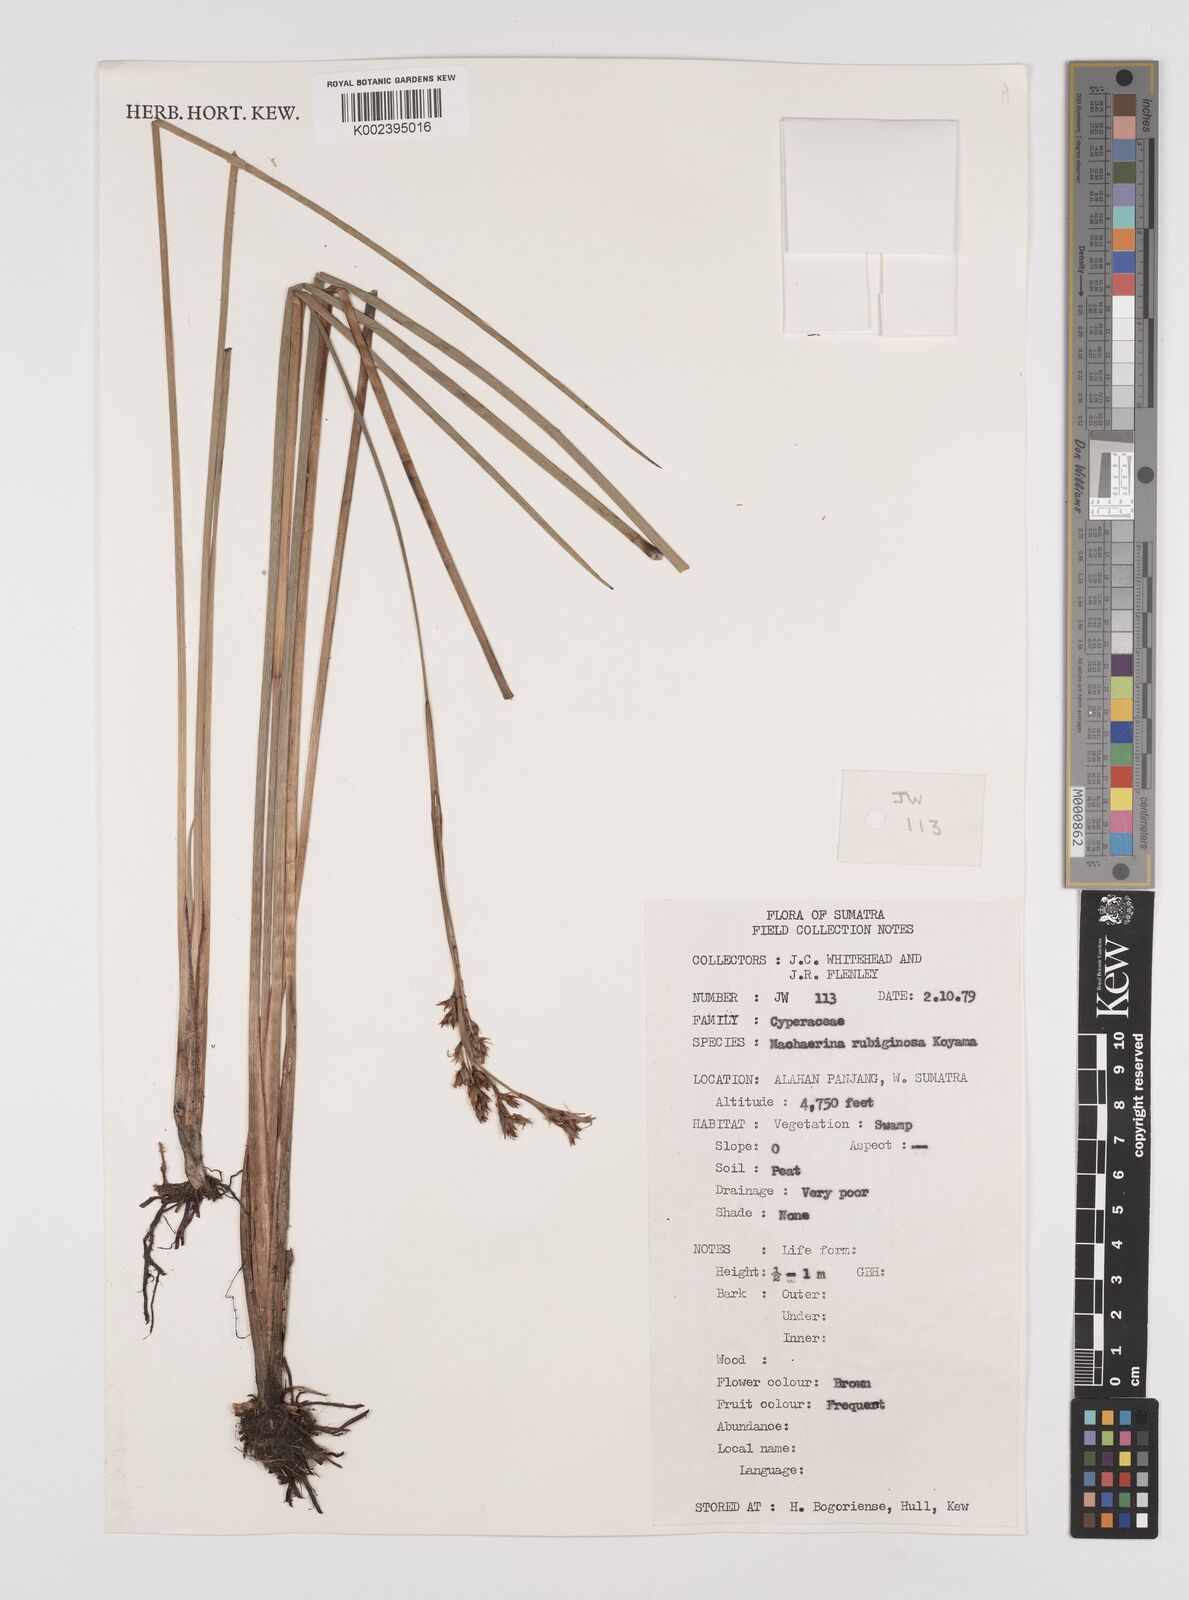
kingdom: Plantae
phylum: Tracheophyta
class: Liliopsida
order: Poales
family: Cyperaceae
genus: Machaerina
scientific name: Machaerina
